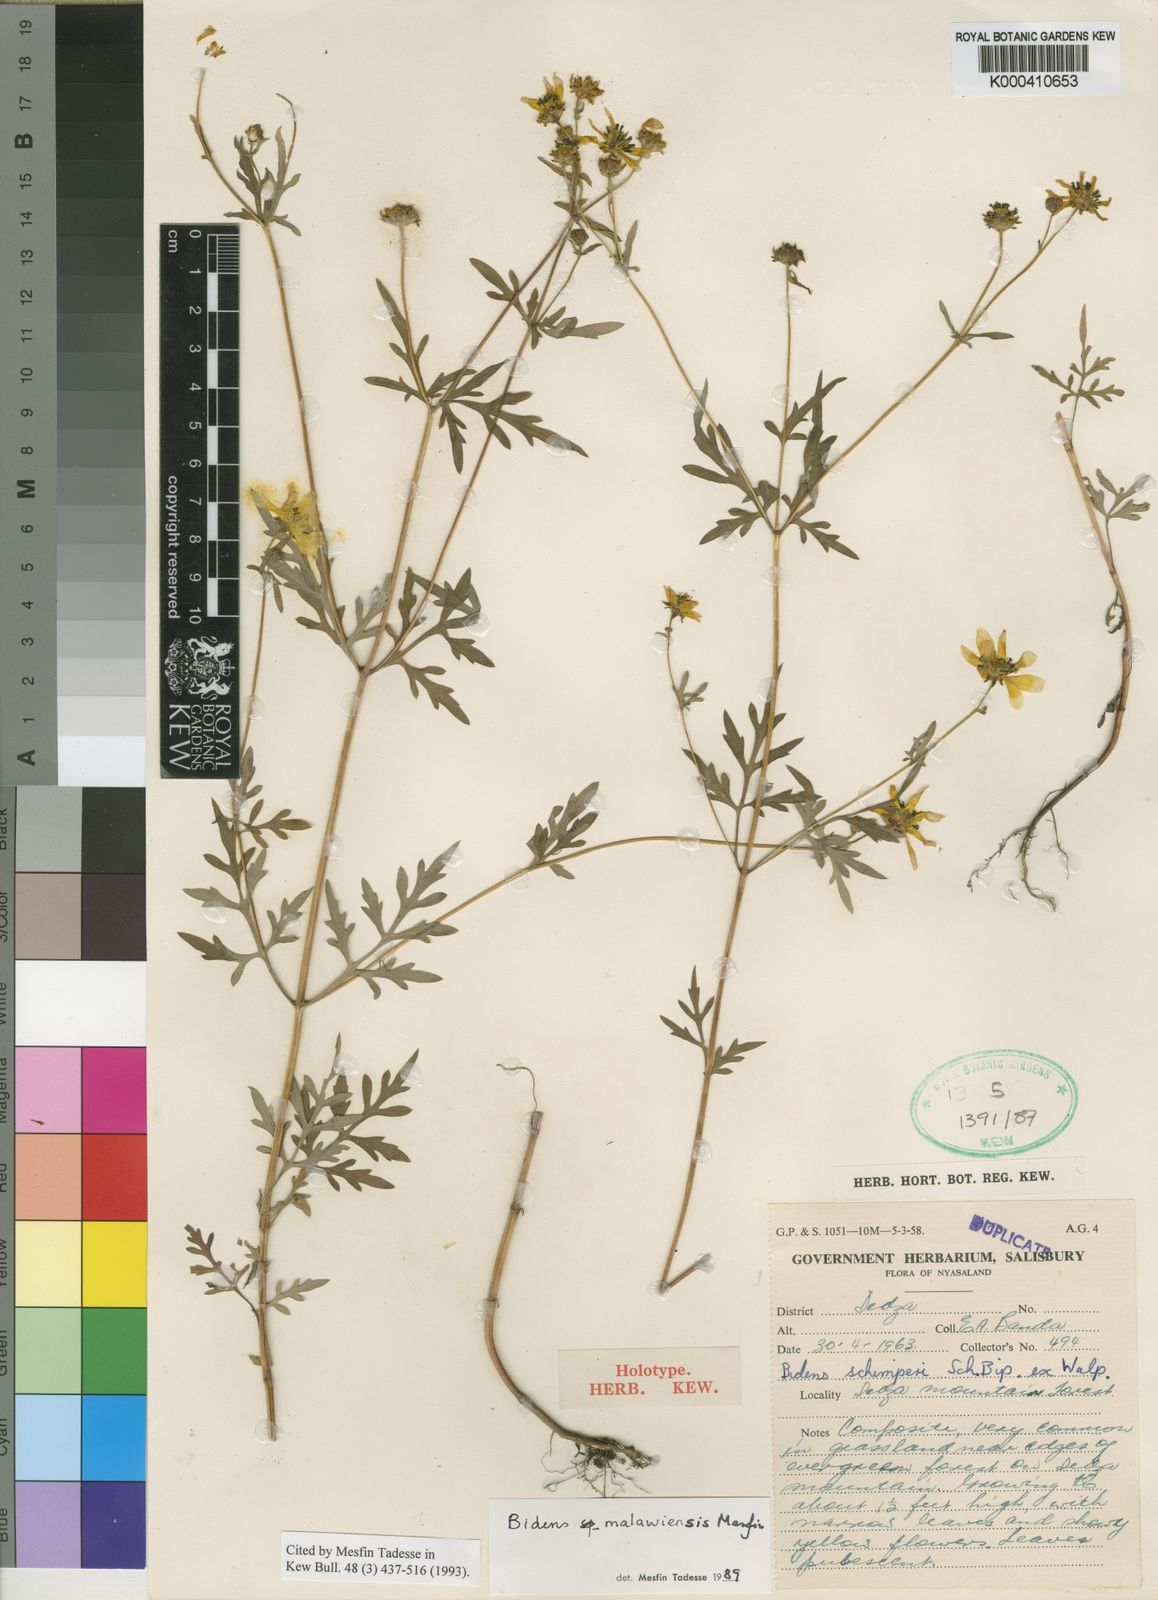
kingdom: Plantae
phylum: Tracheophyta
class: Magnoliopsida
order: Asterales
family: Asteraceae
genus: Bidens
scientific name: Bidens malawiensis
